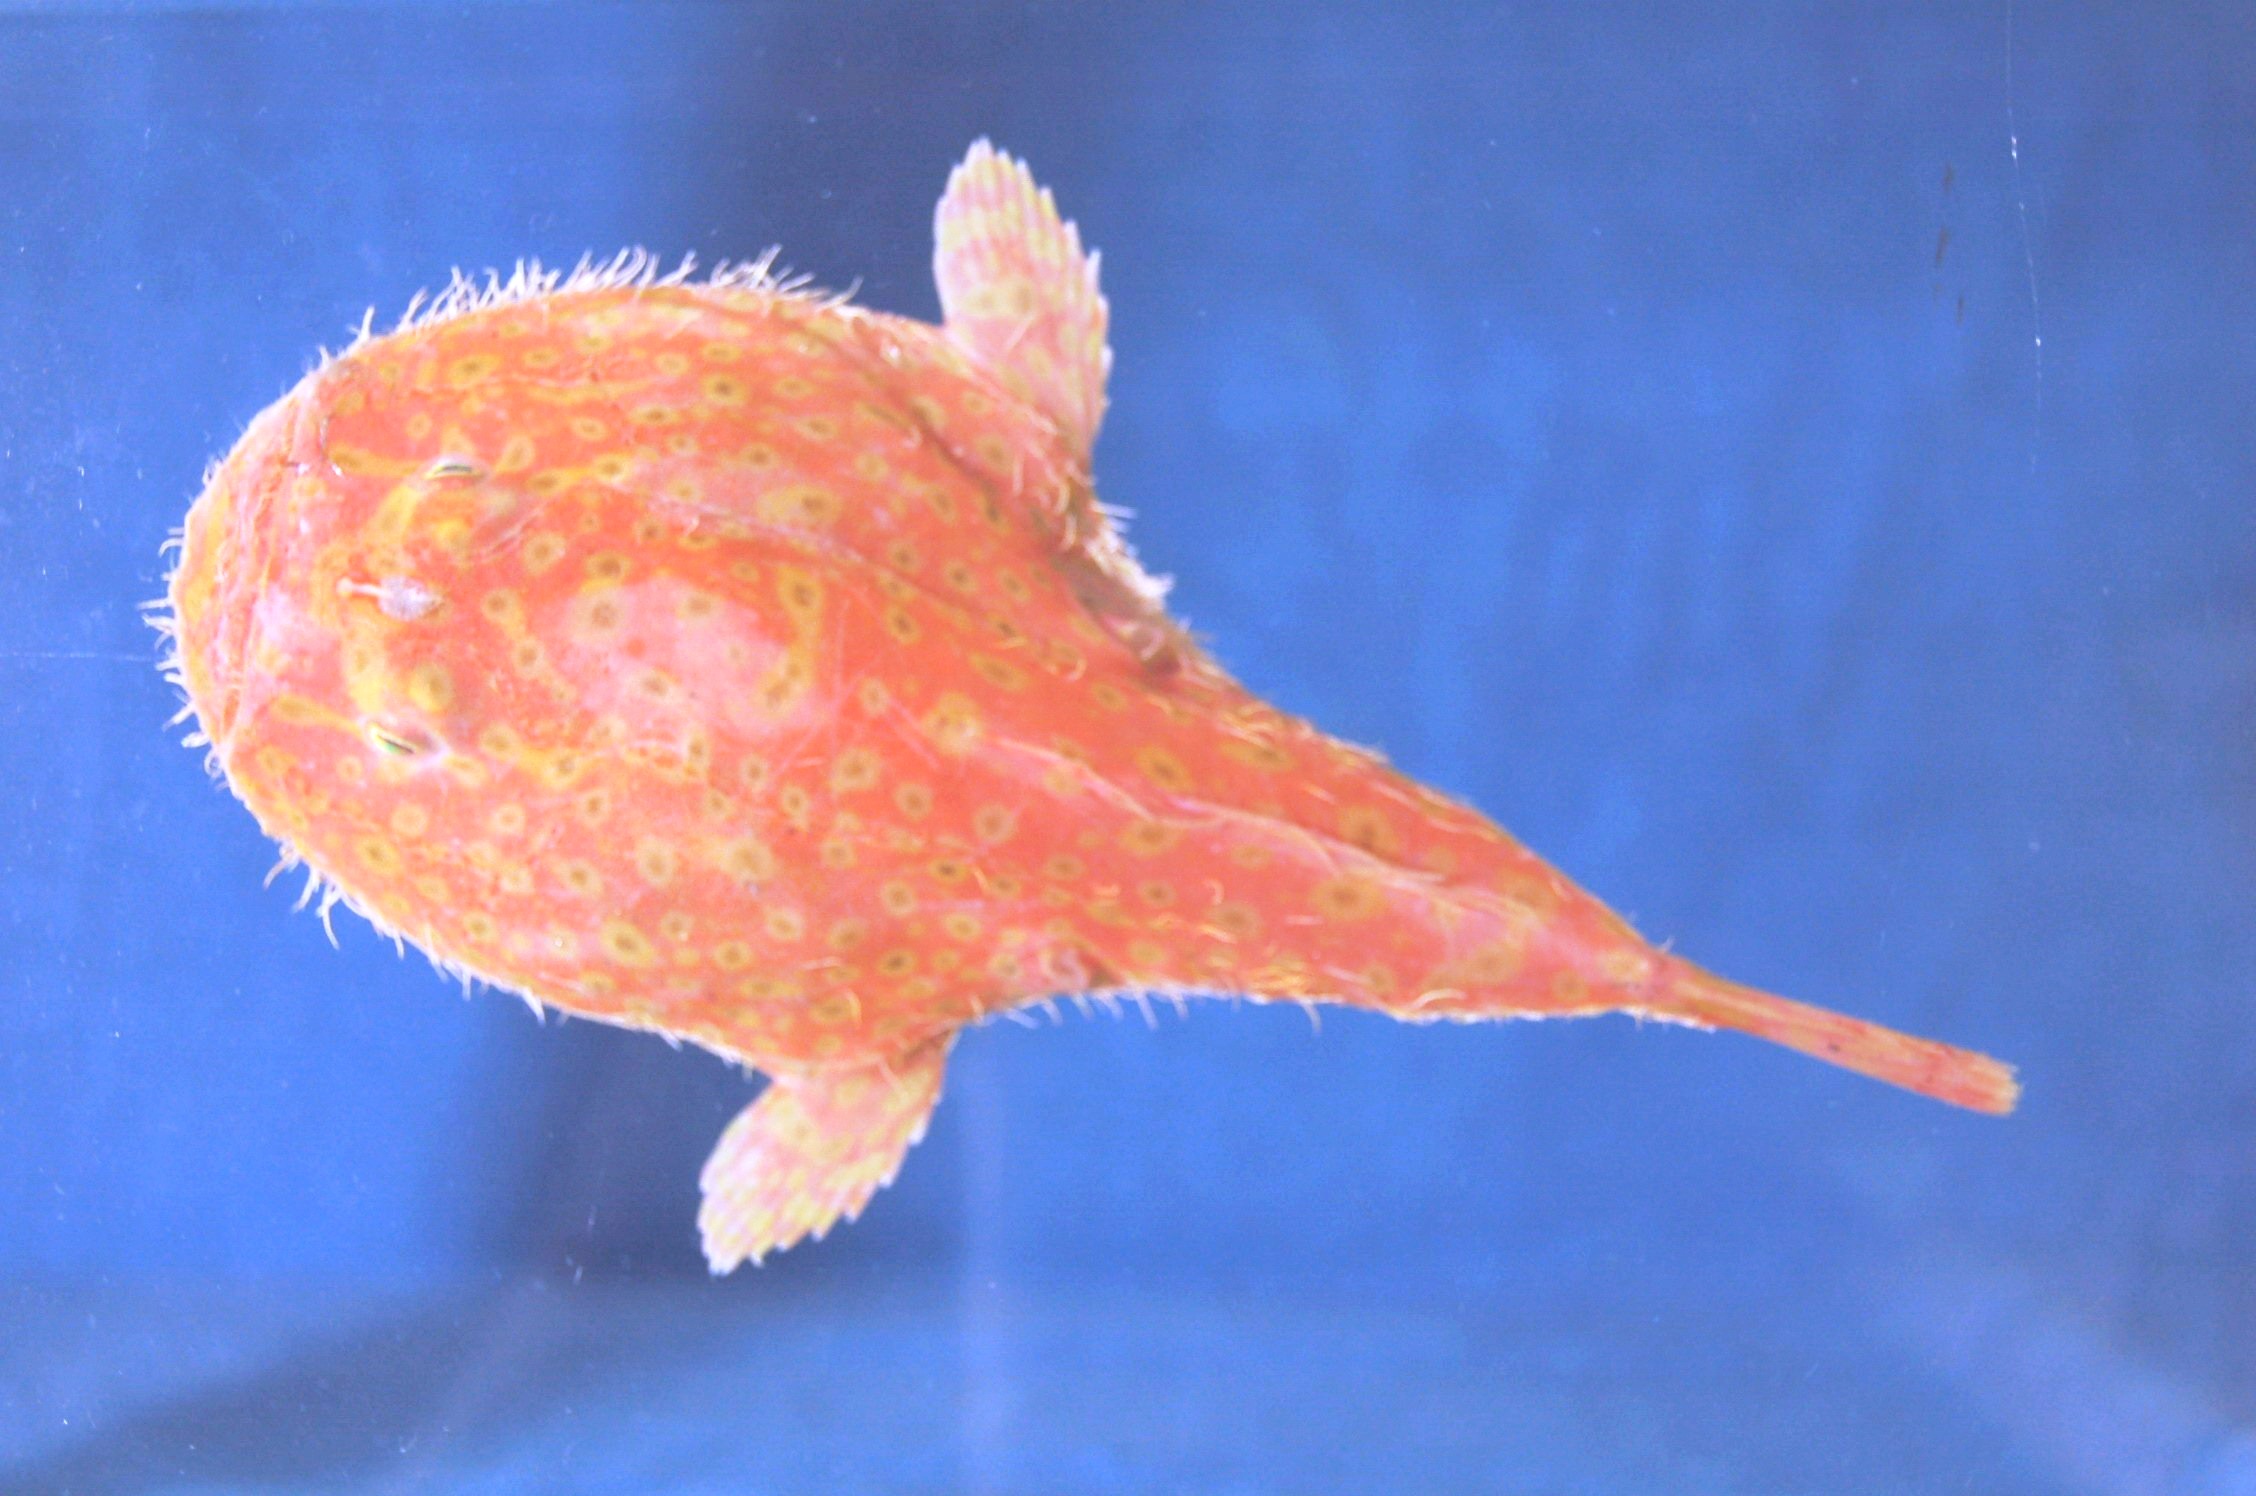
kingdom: Animalia
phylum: Chordata
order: Lophiiformes
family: Chaunacidae
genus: Chaunax
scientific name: Chaunax atimovatae
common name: Southern frogmouth
